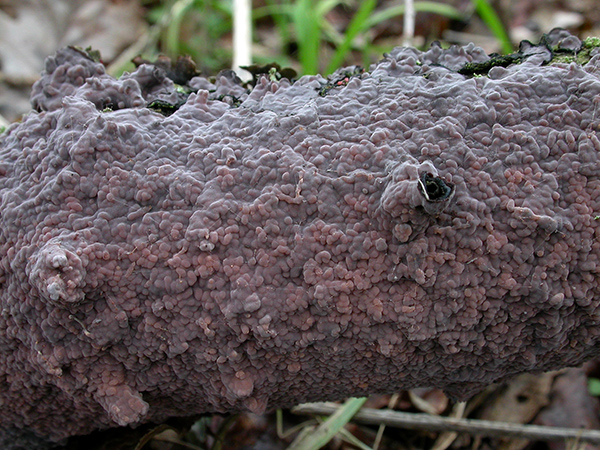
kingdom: Fungi
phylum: Basidiomycota
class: Agaricomycetes
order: Russulales
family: Peniophoraceae
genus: Peniophora
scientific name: Peniophora quercina
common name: ege-voksskind
